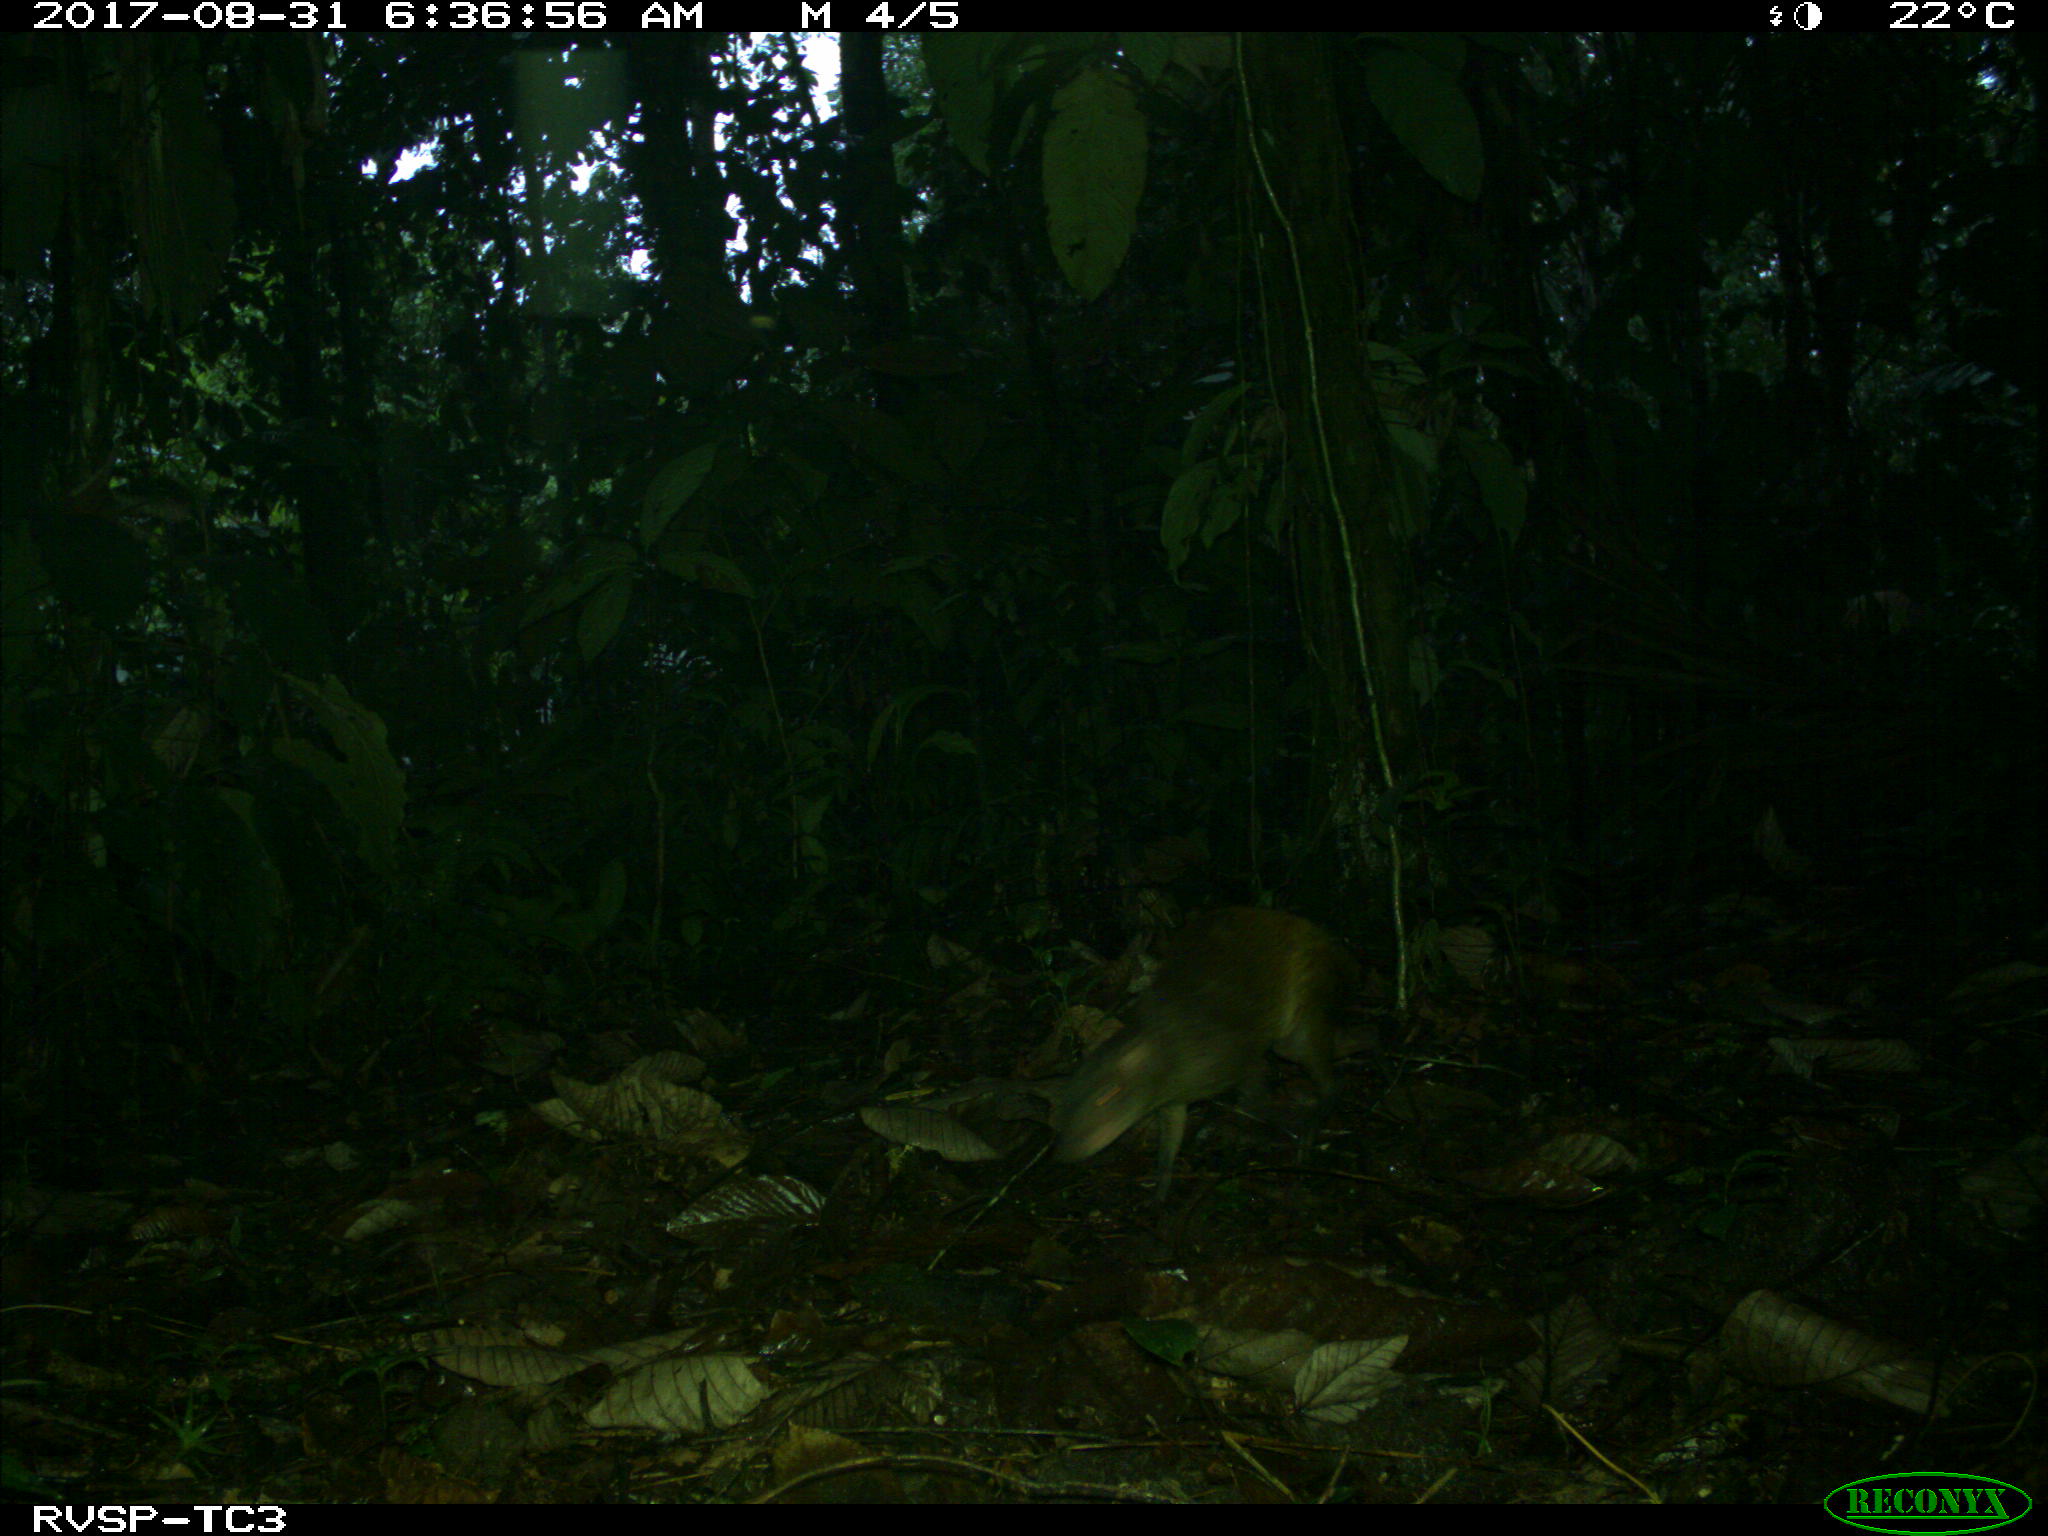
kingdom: Animalia
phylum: Chordata
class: Mammalia
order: Rodentia
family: Dasyproctidae
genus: Dasyprocta
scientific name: Dasyprocta punctata
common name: Central american agouti
